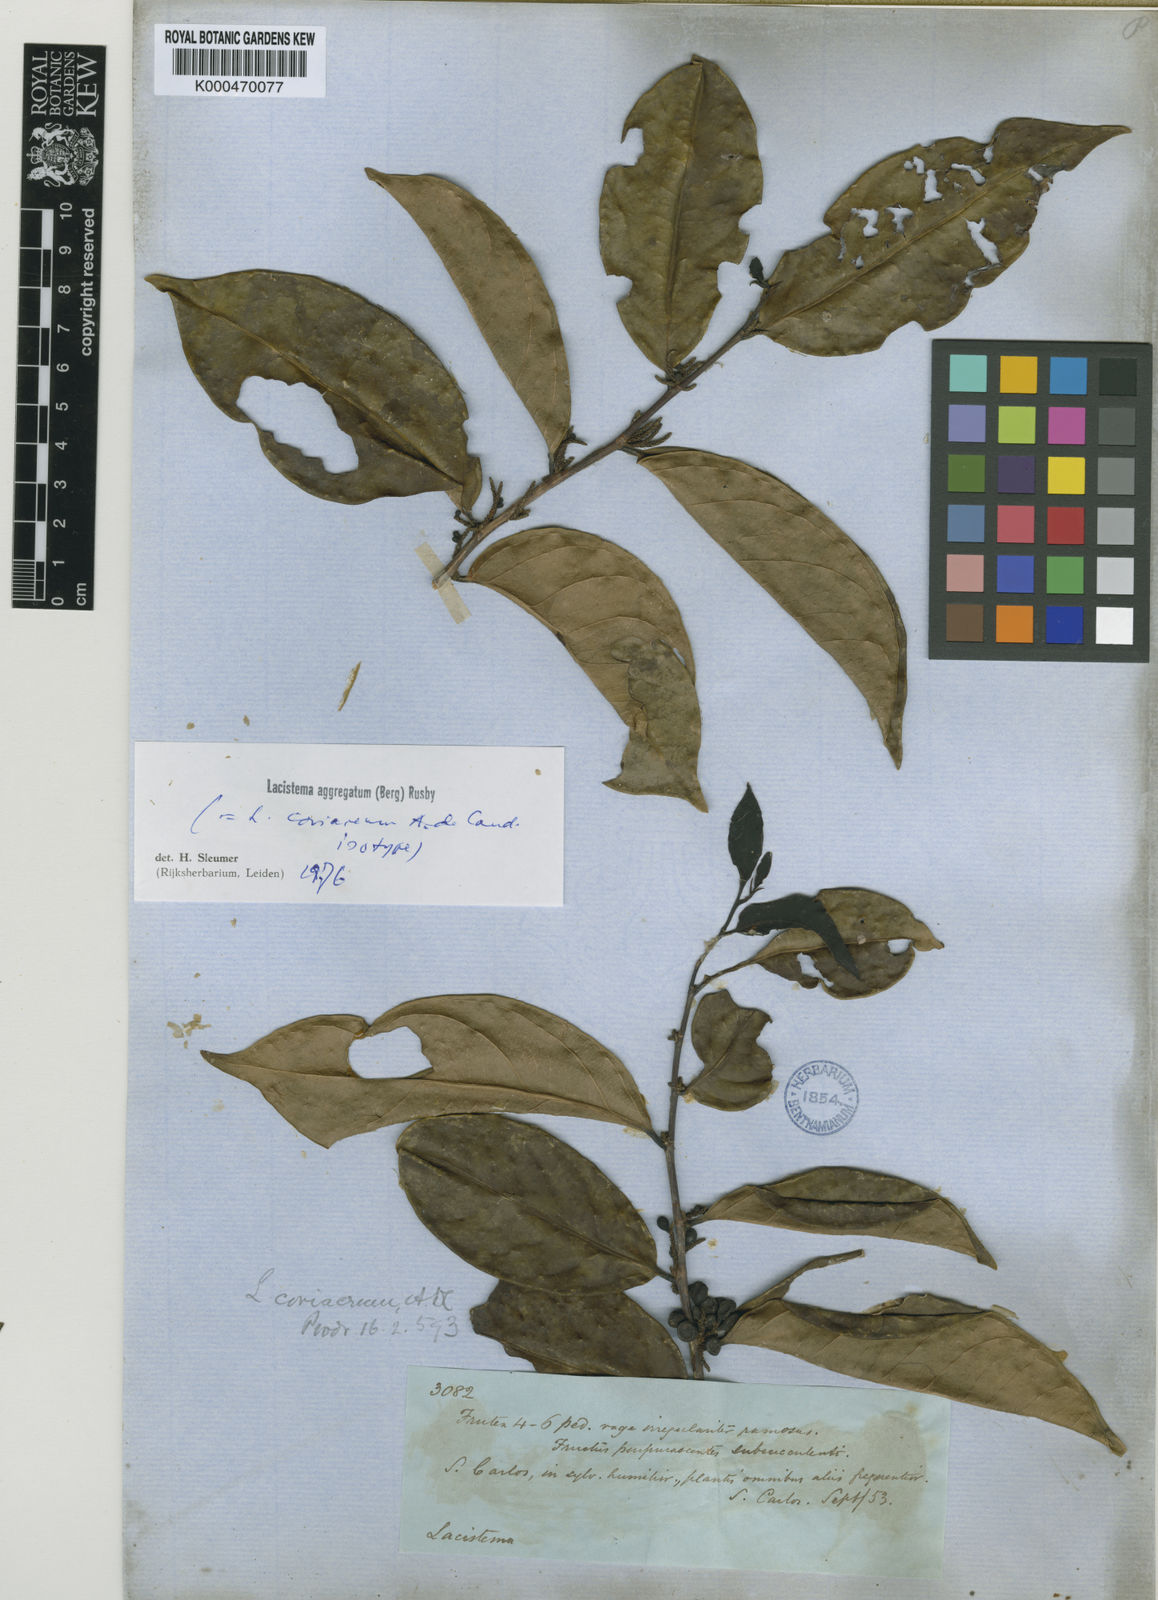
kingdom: Plantae
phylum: Tracheophyta
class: Magnoliopsida
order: Malpighiales
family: Lacistemataceae
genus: Lacistema
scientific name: Lacistema aggregatum
